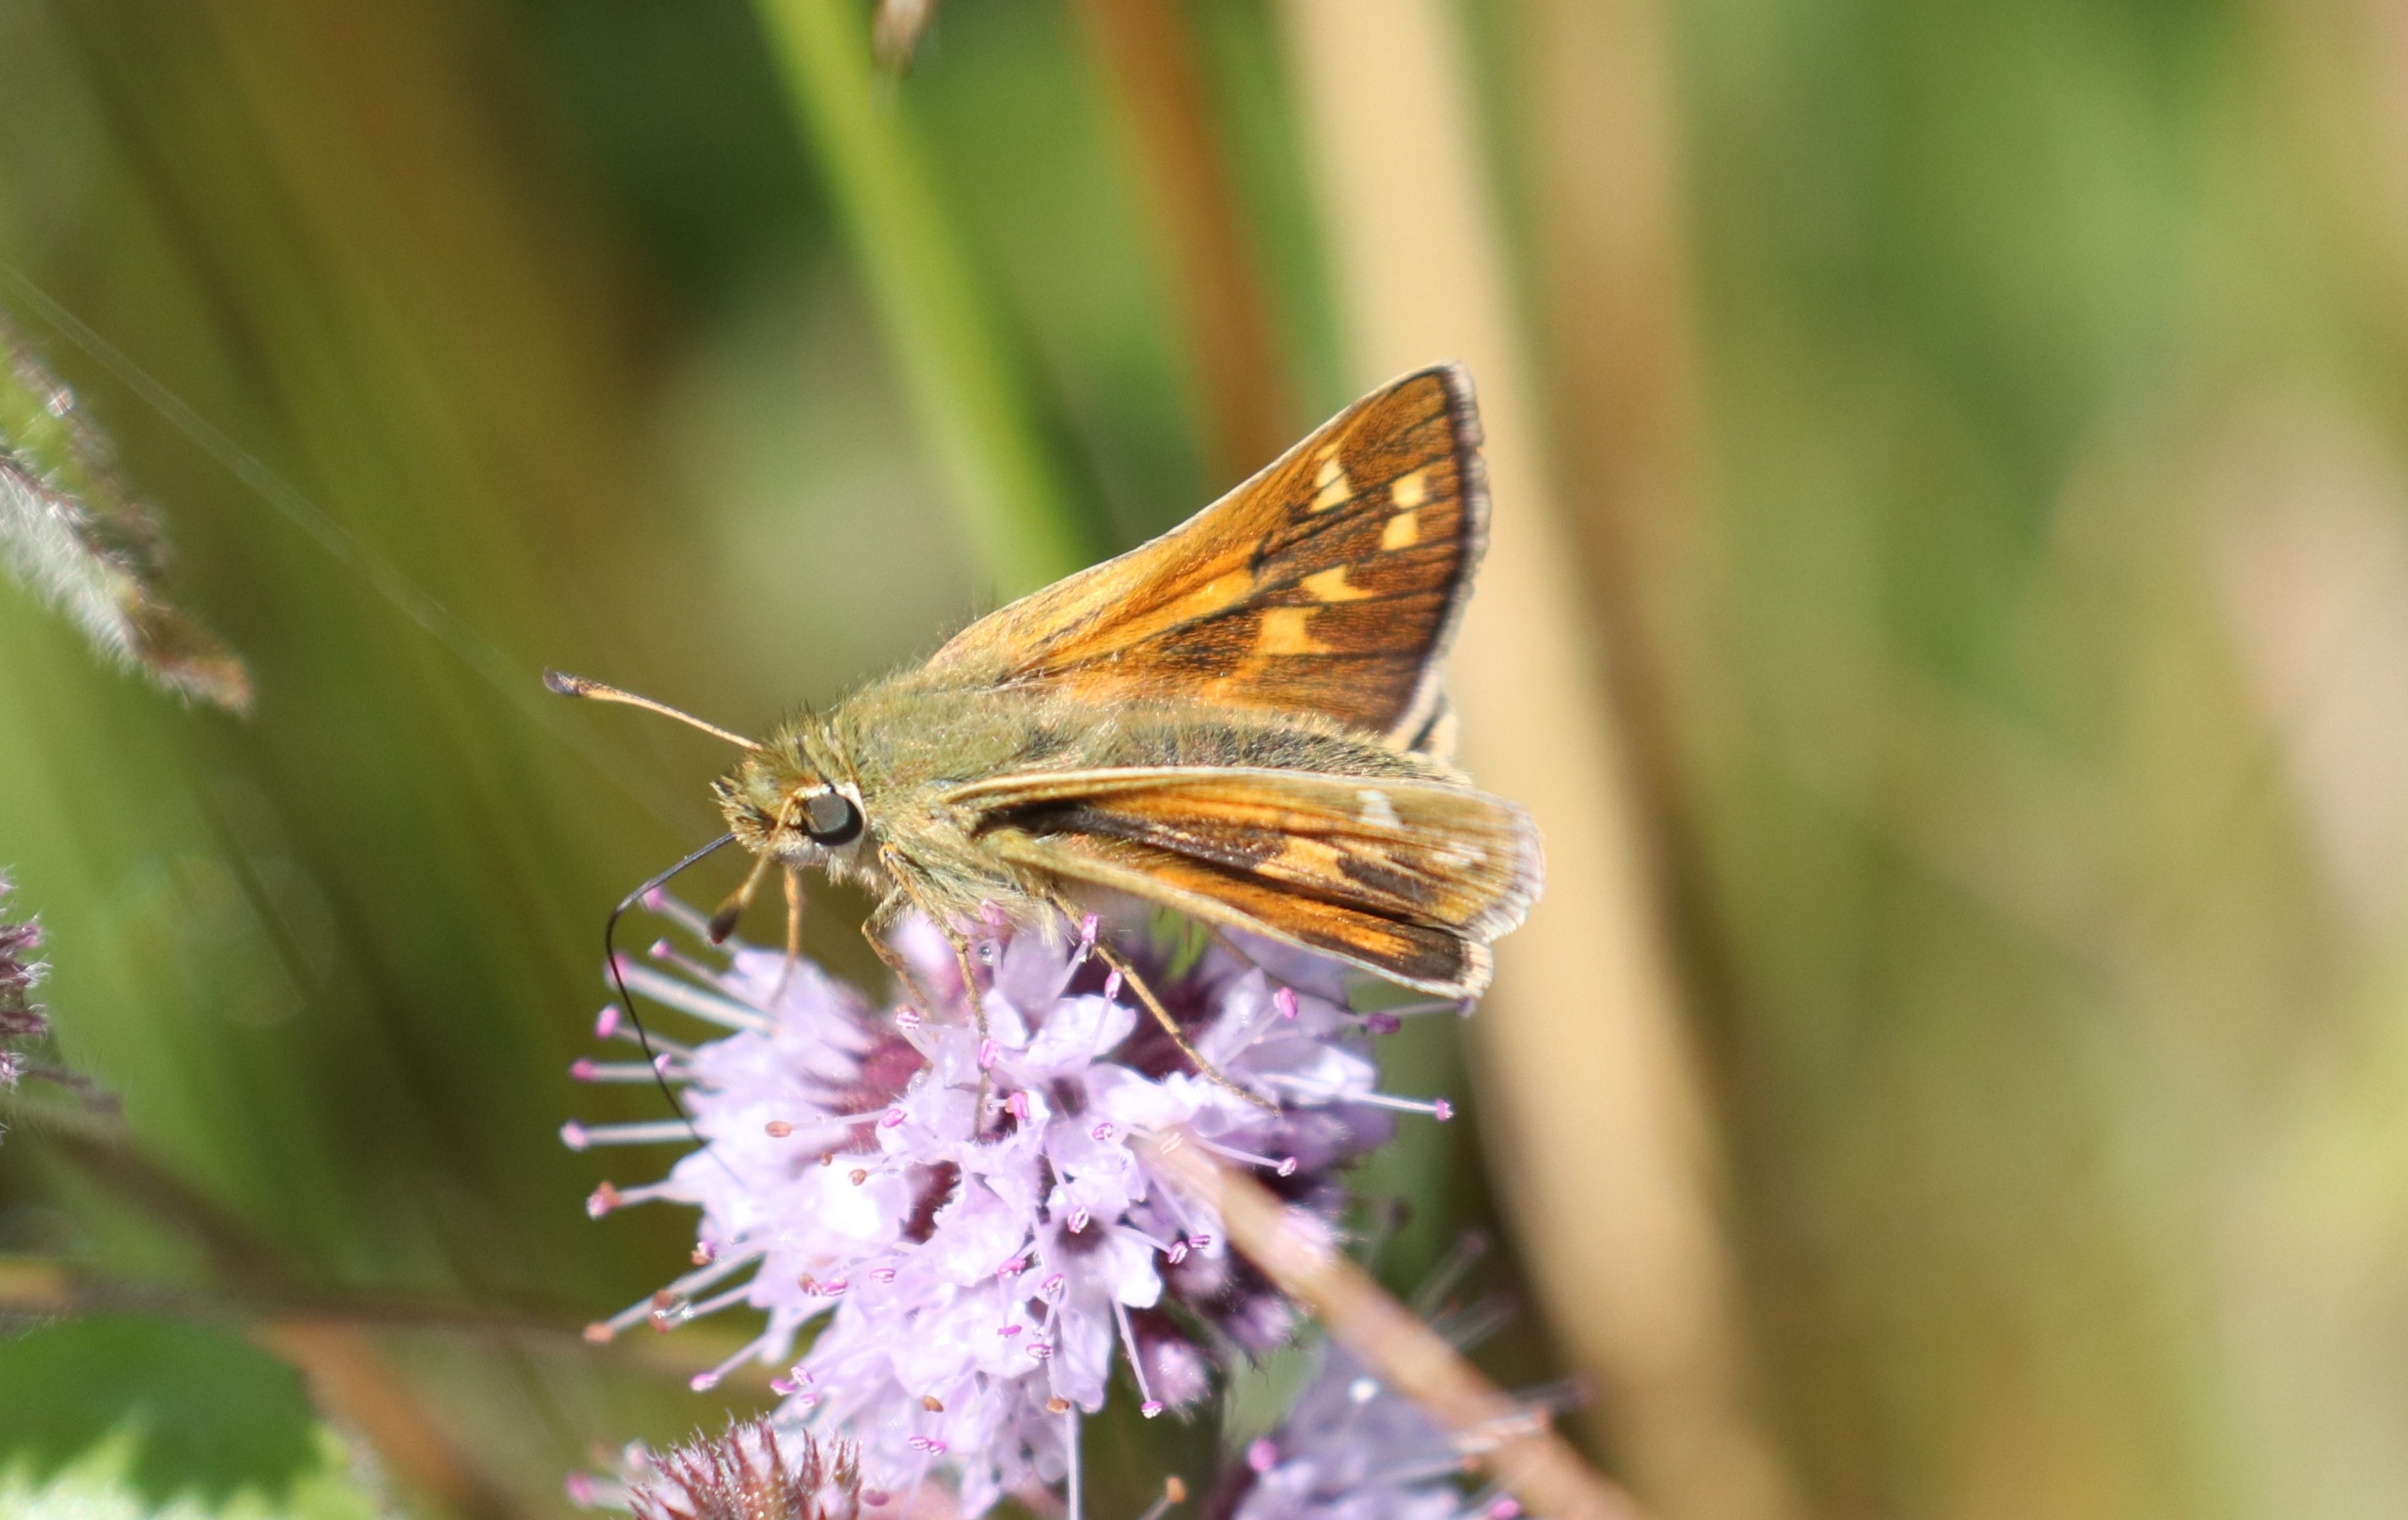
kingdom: Animalia
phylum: Arthropoda
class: Insecta
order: Lepidoptera
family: Hesperiidae
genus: Hesperia
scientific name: Hesperia comma
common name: Kommabredpande
